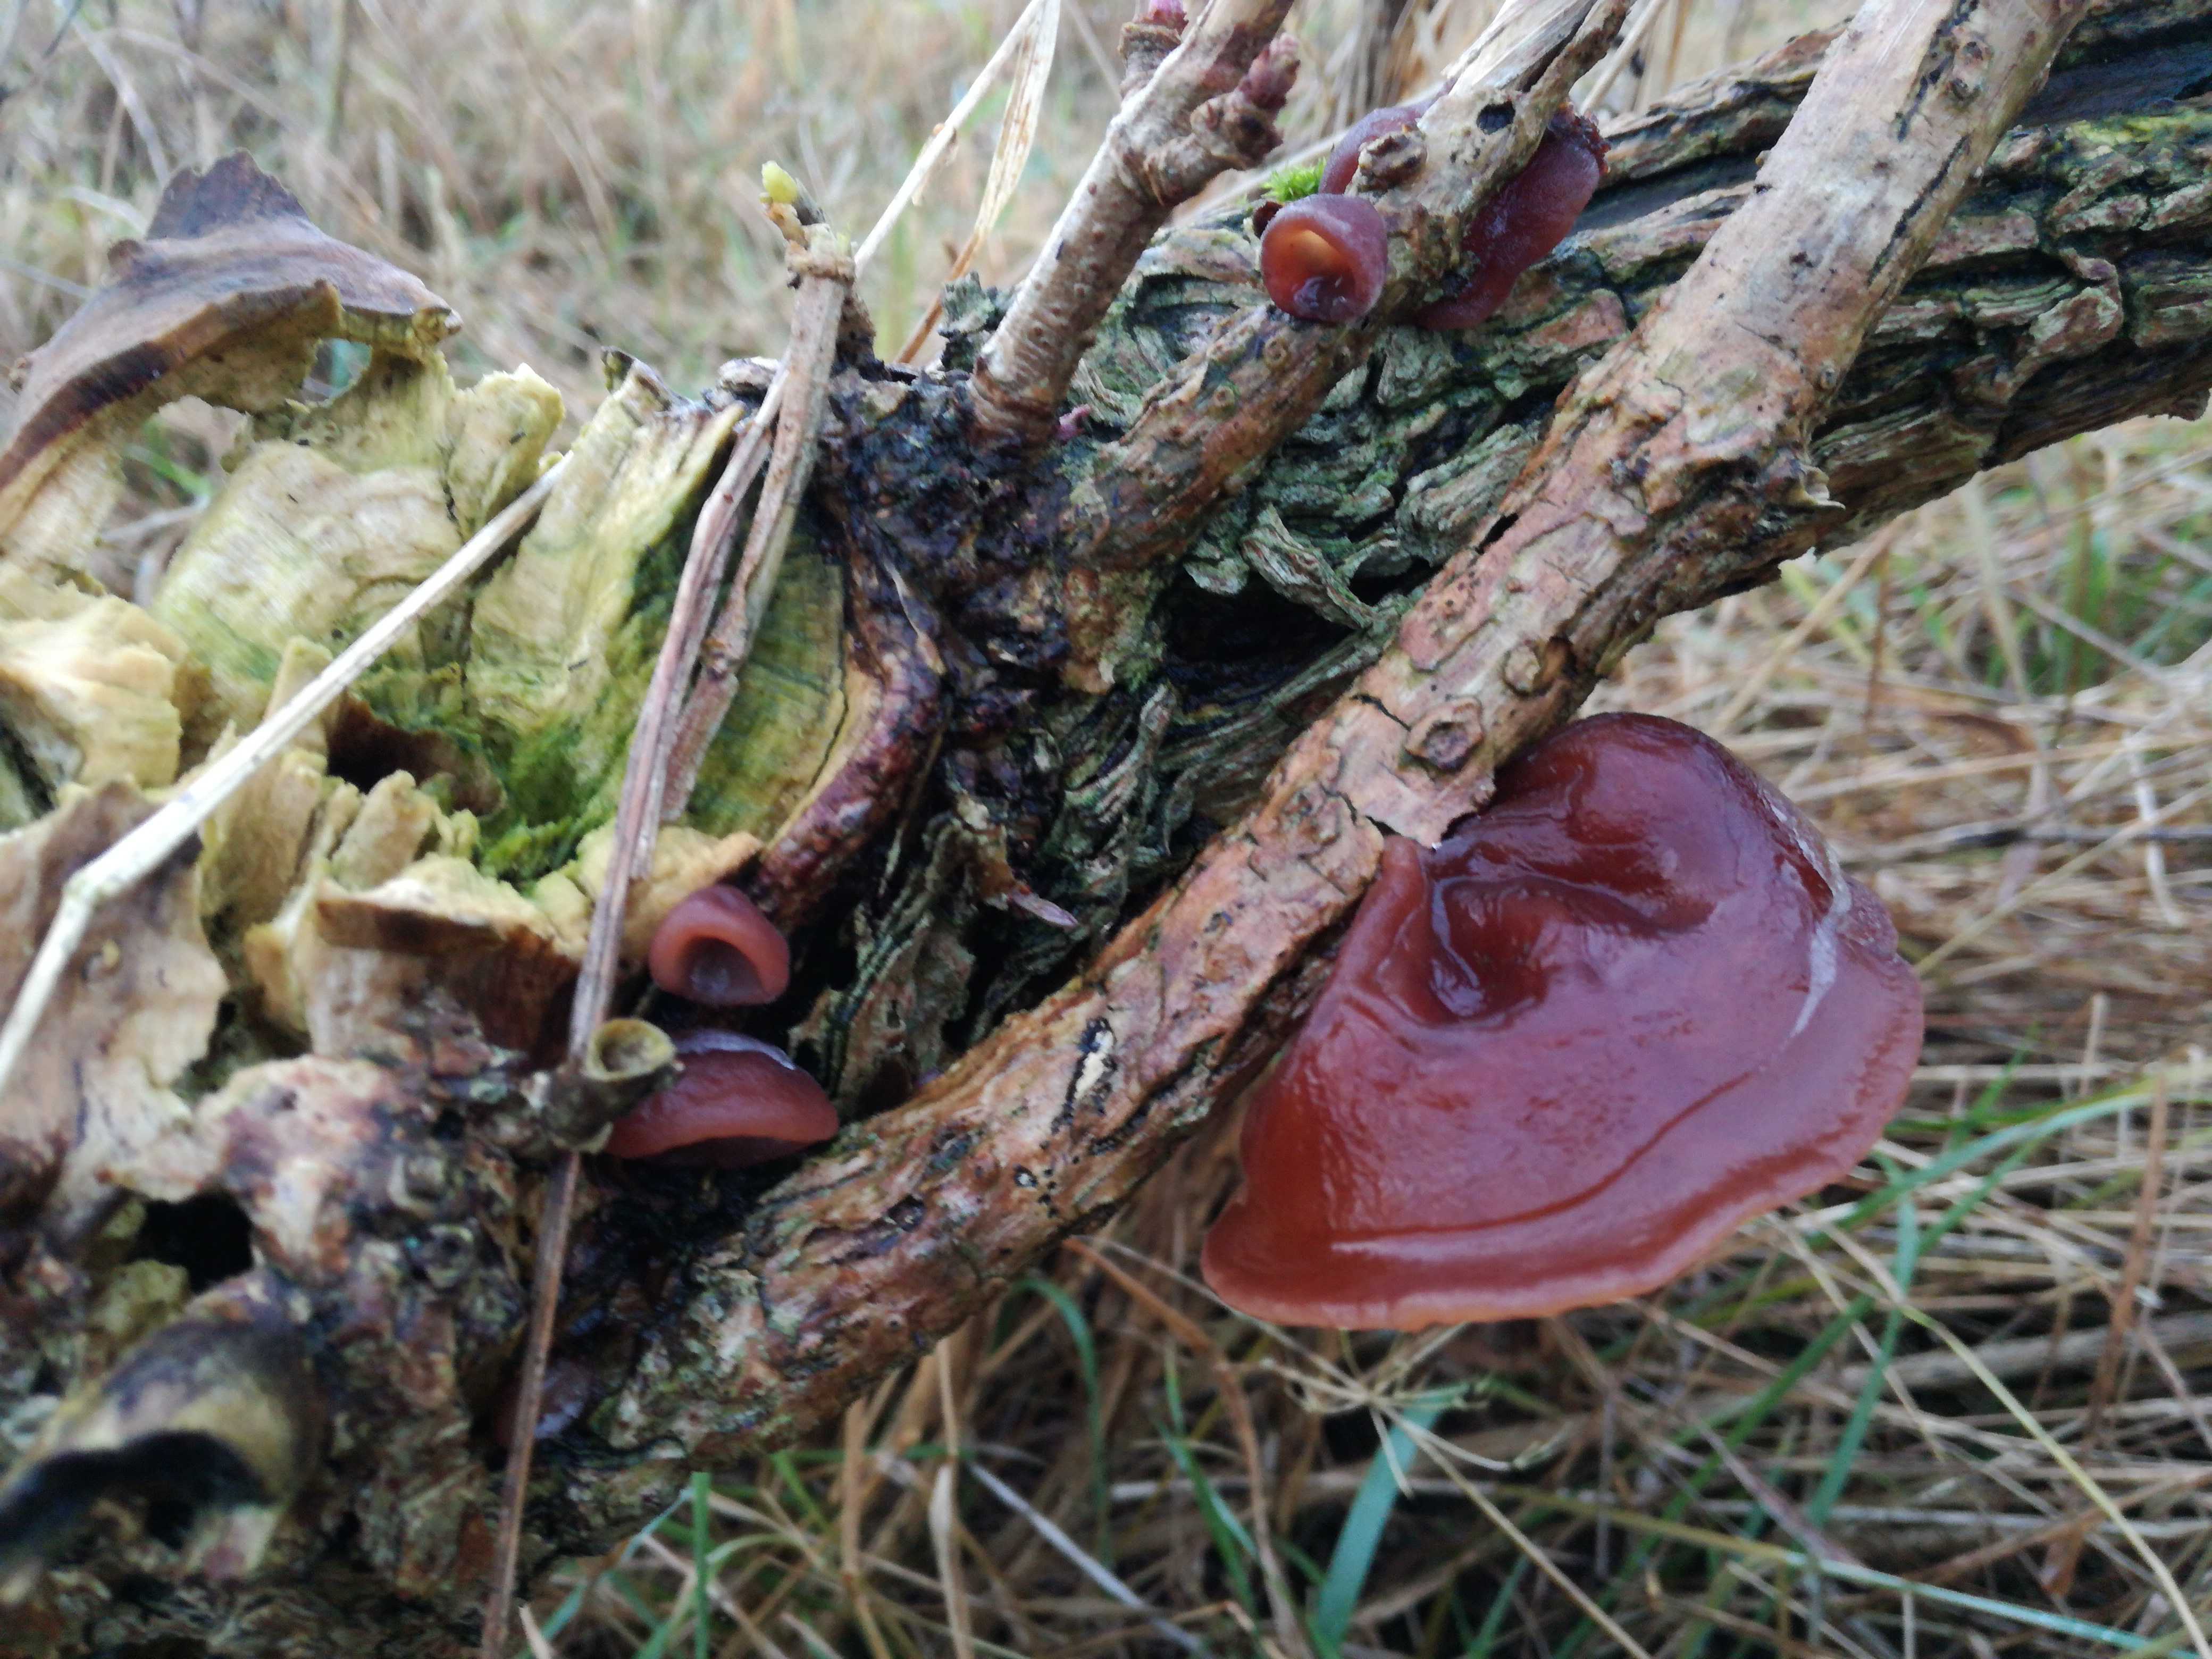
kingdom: Fungi
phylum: Basidiomycota
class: Agaricomycetes
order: Auriculariales
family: Auriculariaceae
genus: Auricularia
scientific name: Auricularia auricula-judae
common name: almindelig judasøre
